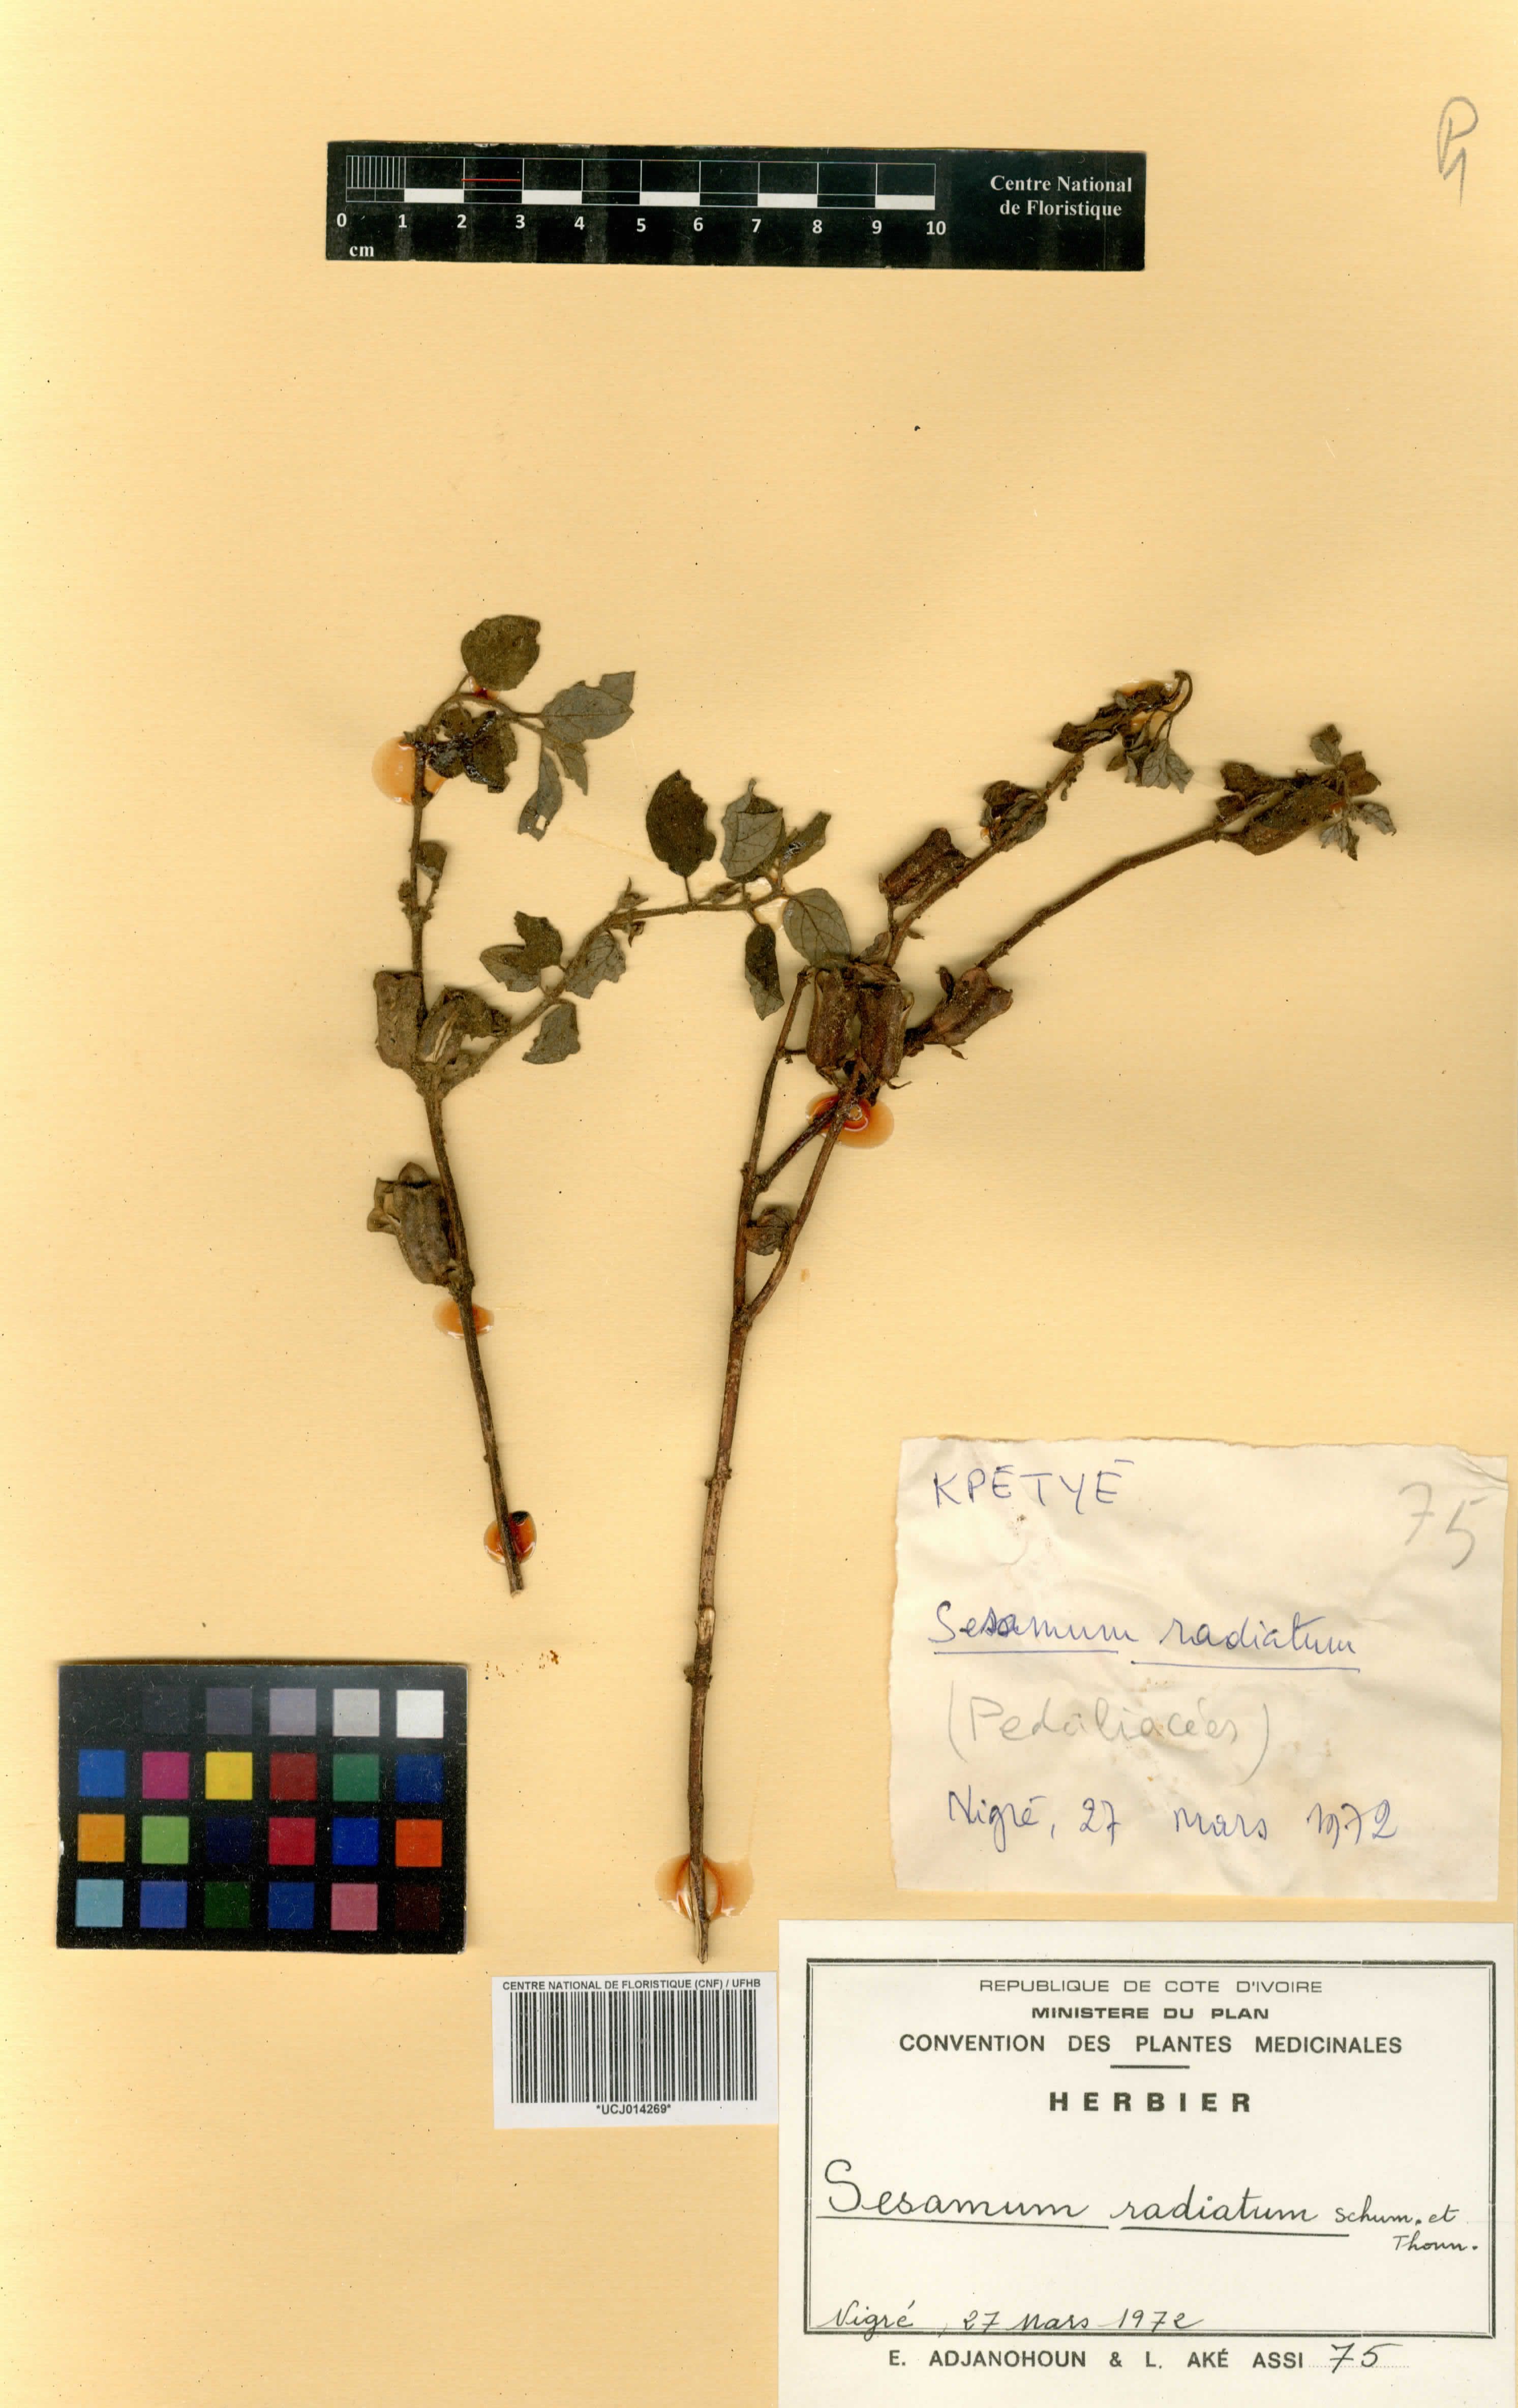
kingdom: Plantae
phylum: Tracheophyta
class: Magnoliopsida
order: Lamiales
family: Pedaliaceae
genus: Sesamum
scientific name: Sesamum radiatum
